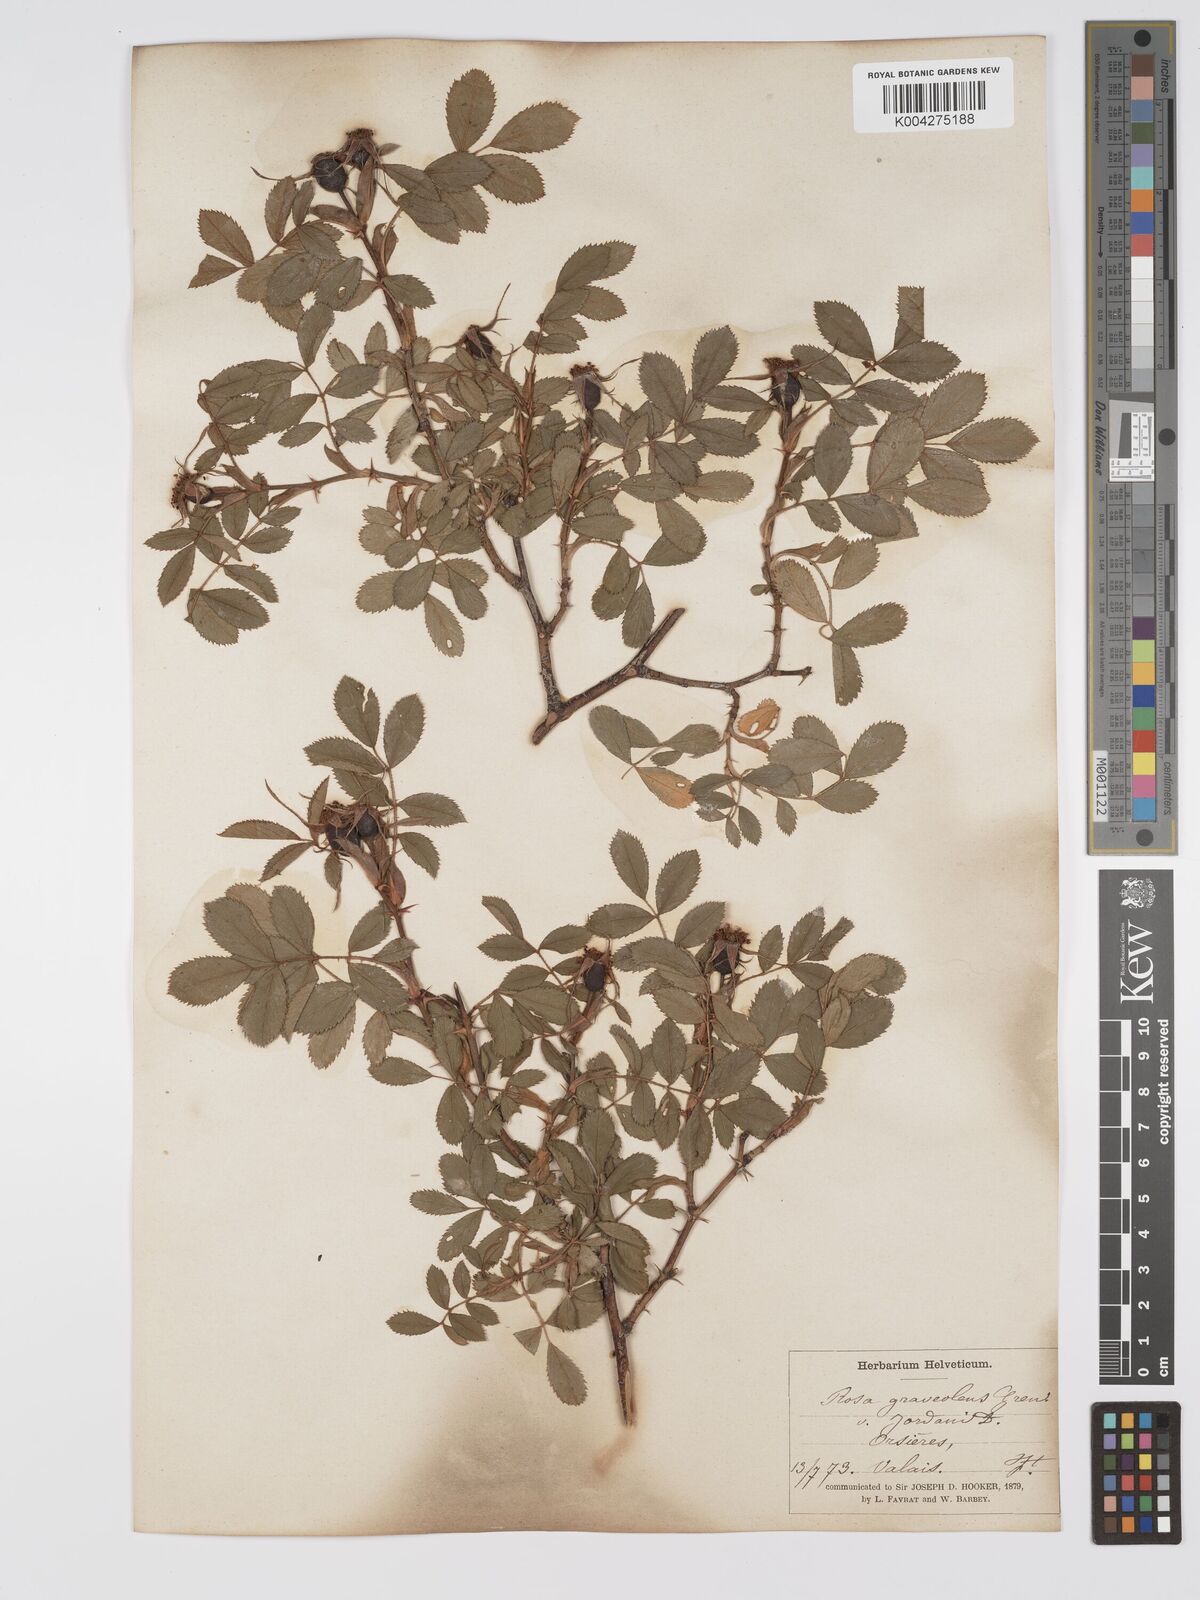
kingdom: Plantae
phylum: Tracheophyta
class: Magnoliopsida
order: Rosales
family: Rosaceae
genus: Rosa
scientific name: Rosa
